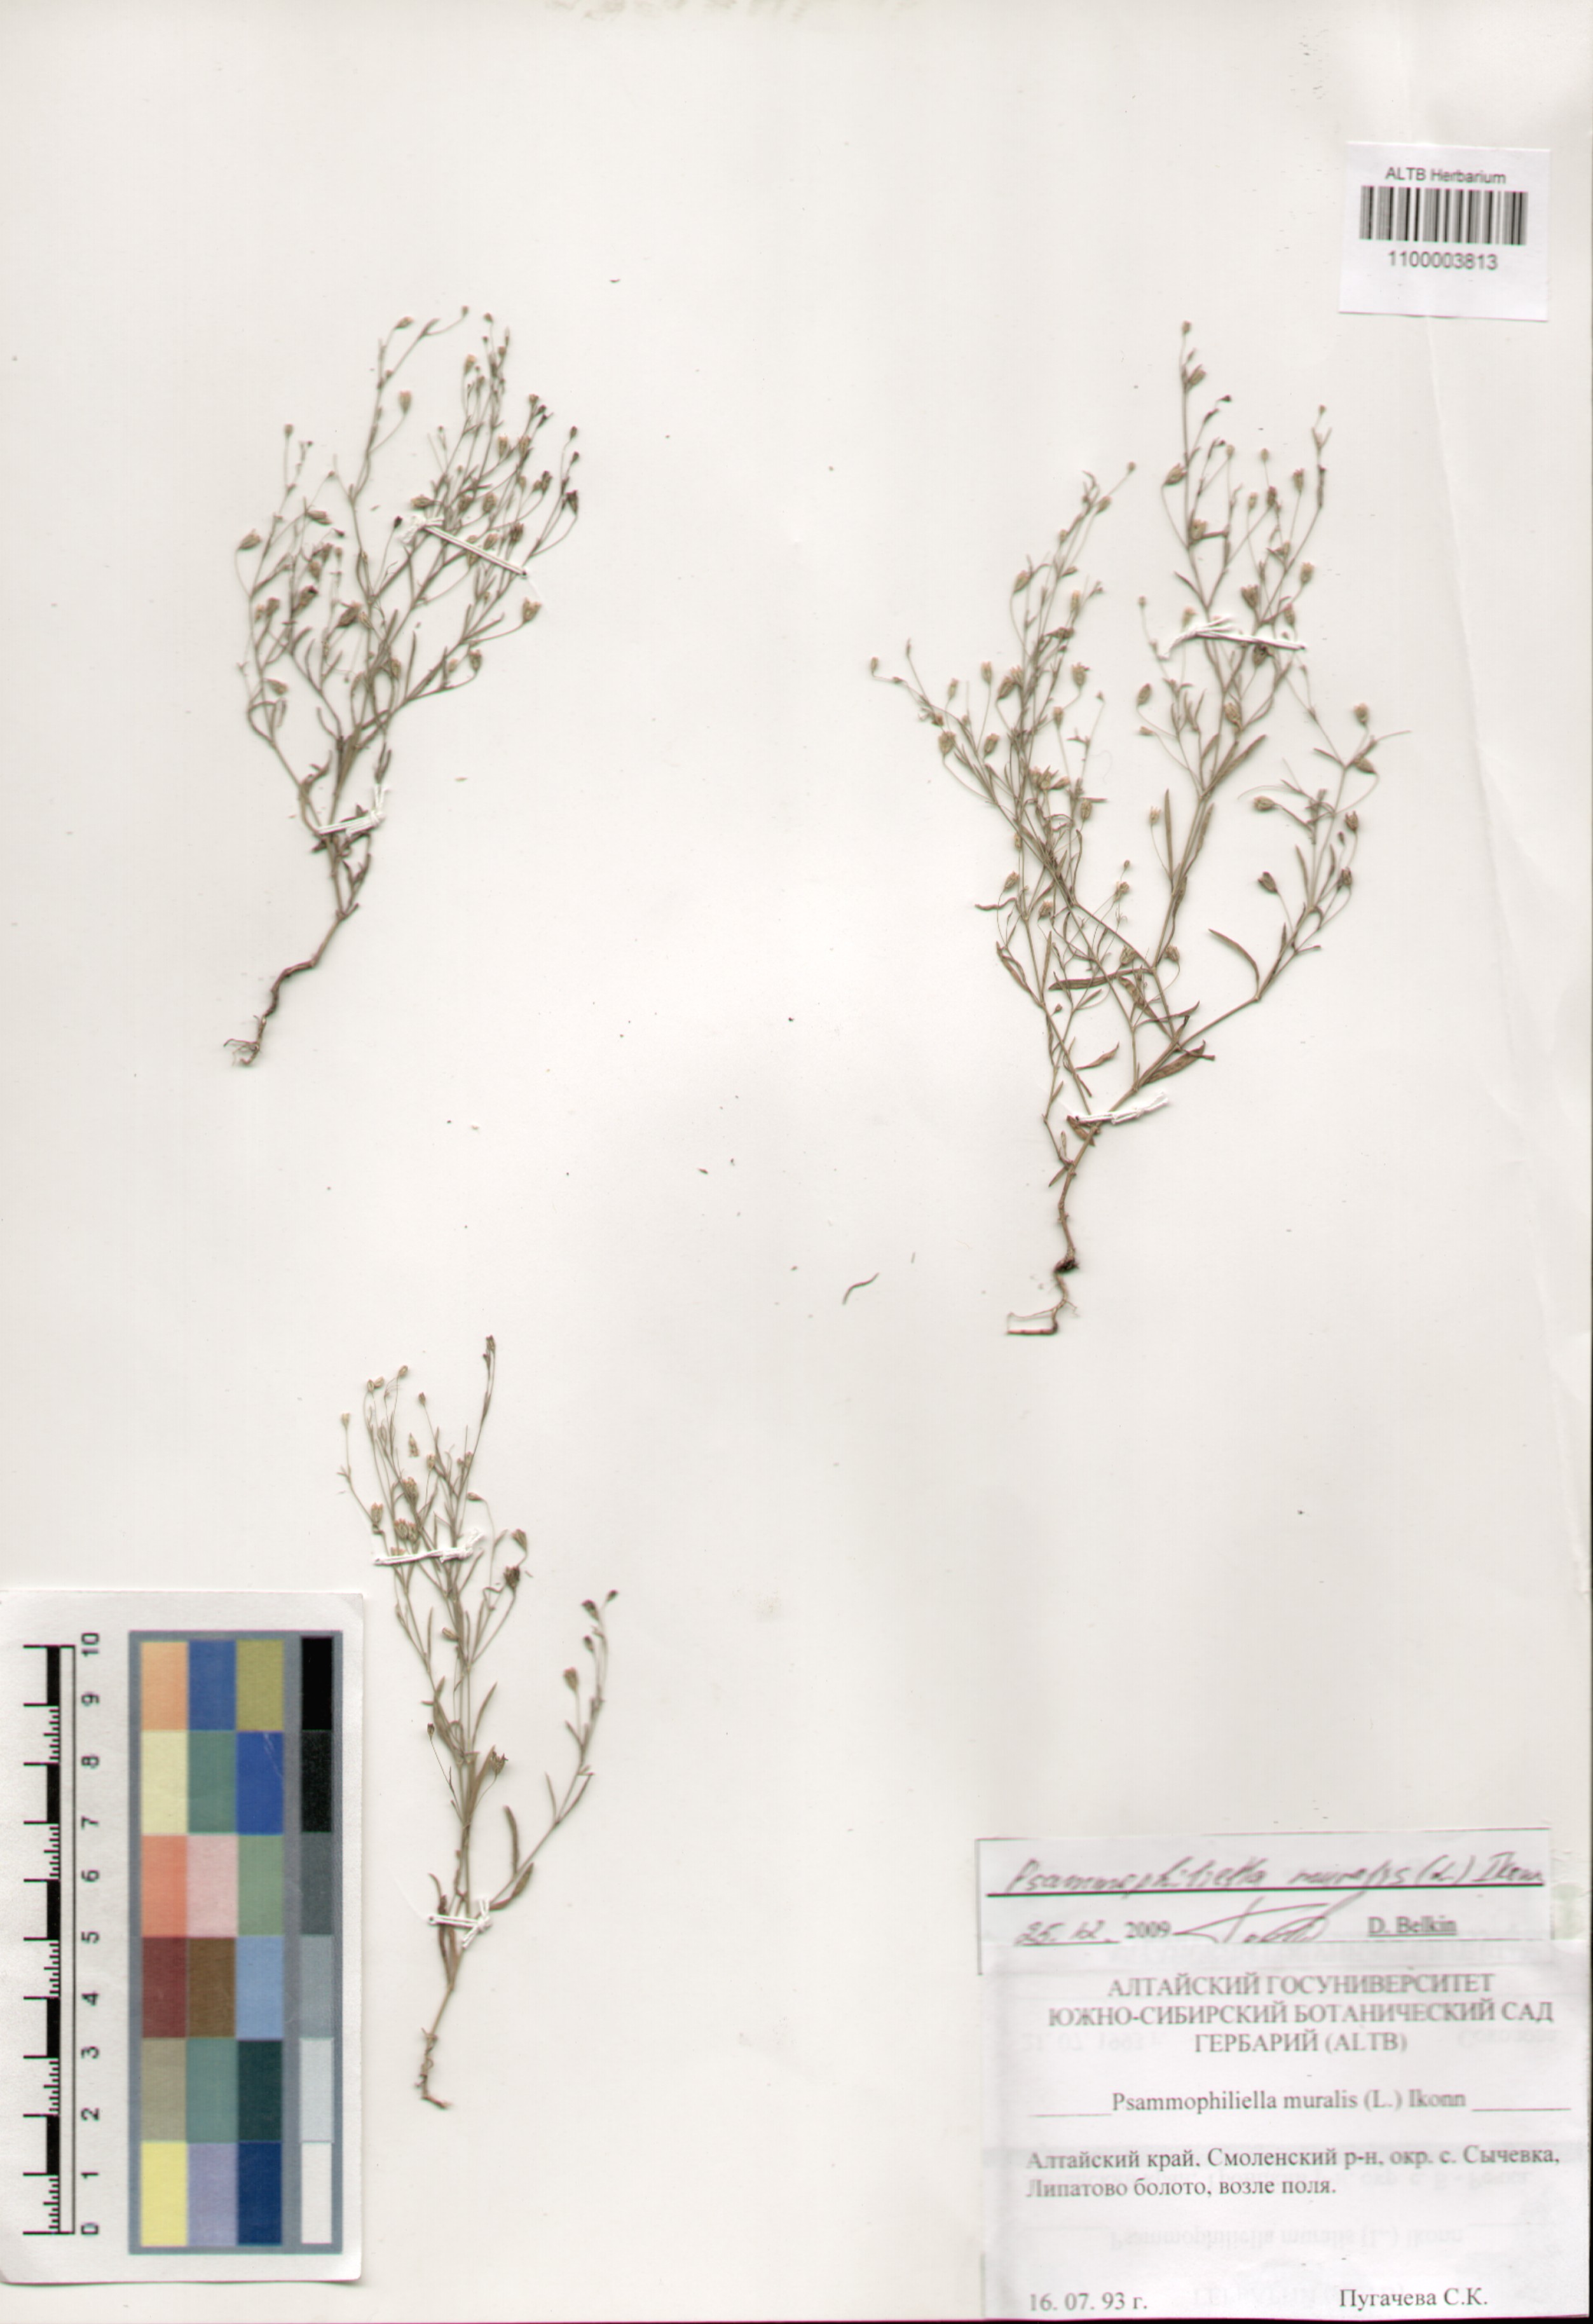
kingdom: Plantae
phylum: Tracheophyta
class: Magnoliopsida
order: Caryophyllales
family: Caryophyllaceae
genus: Psammophiliella
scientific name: Psammophiliella muralis
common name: Cushion baby's-breath
